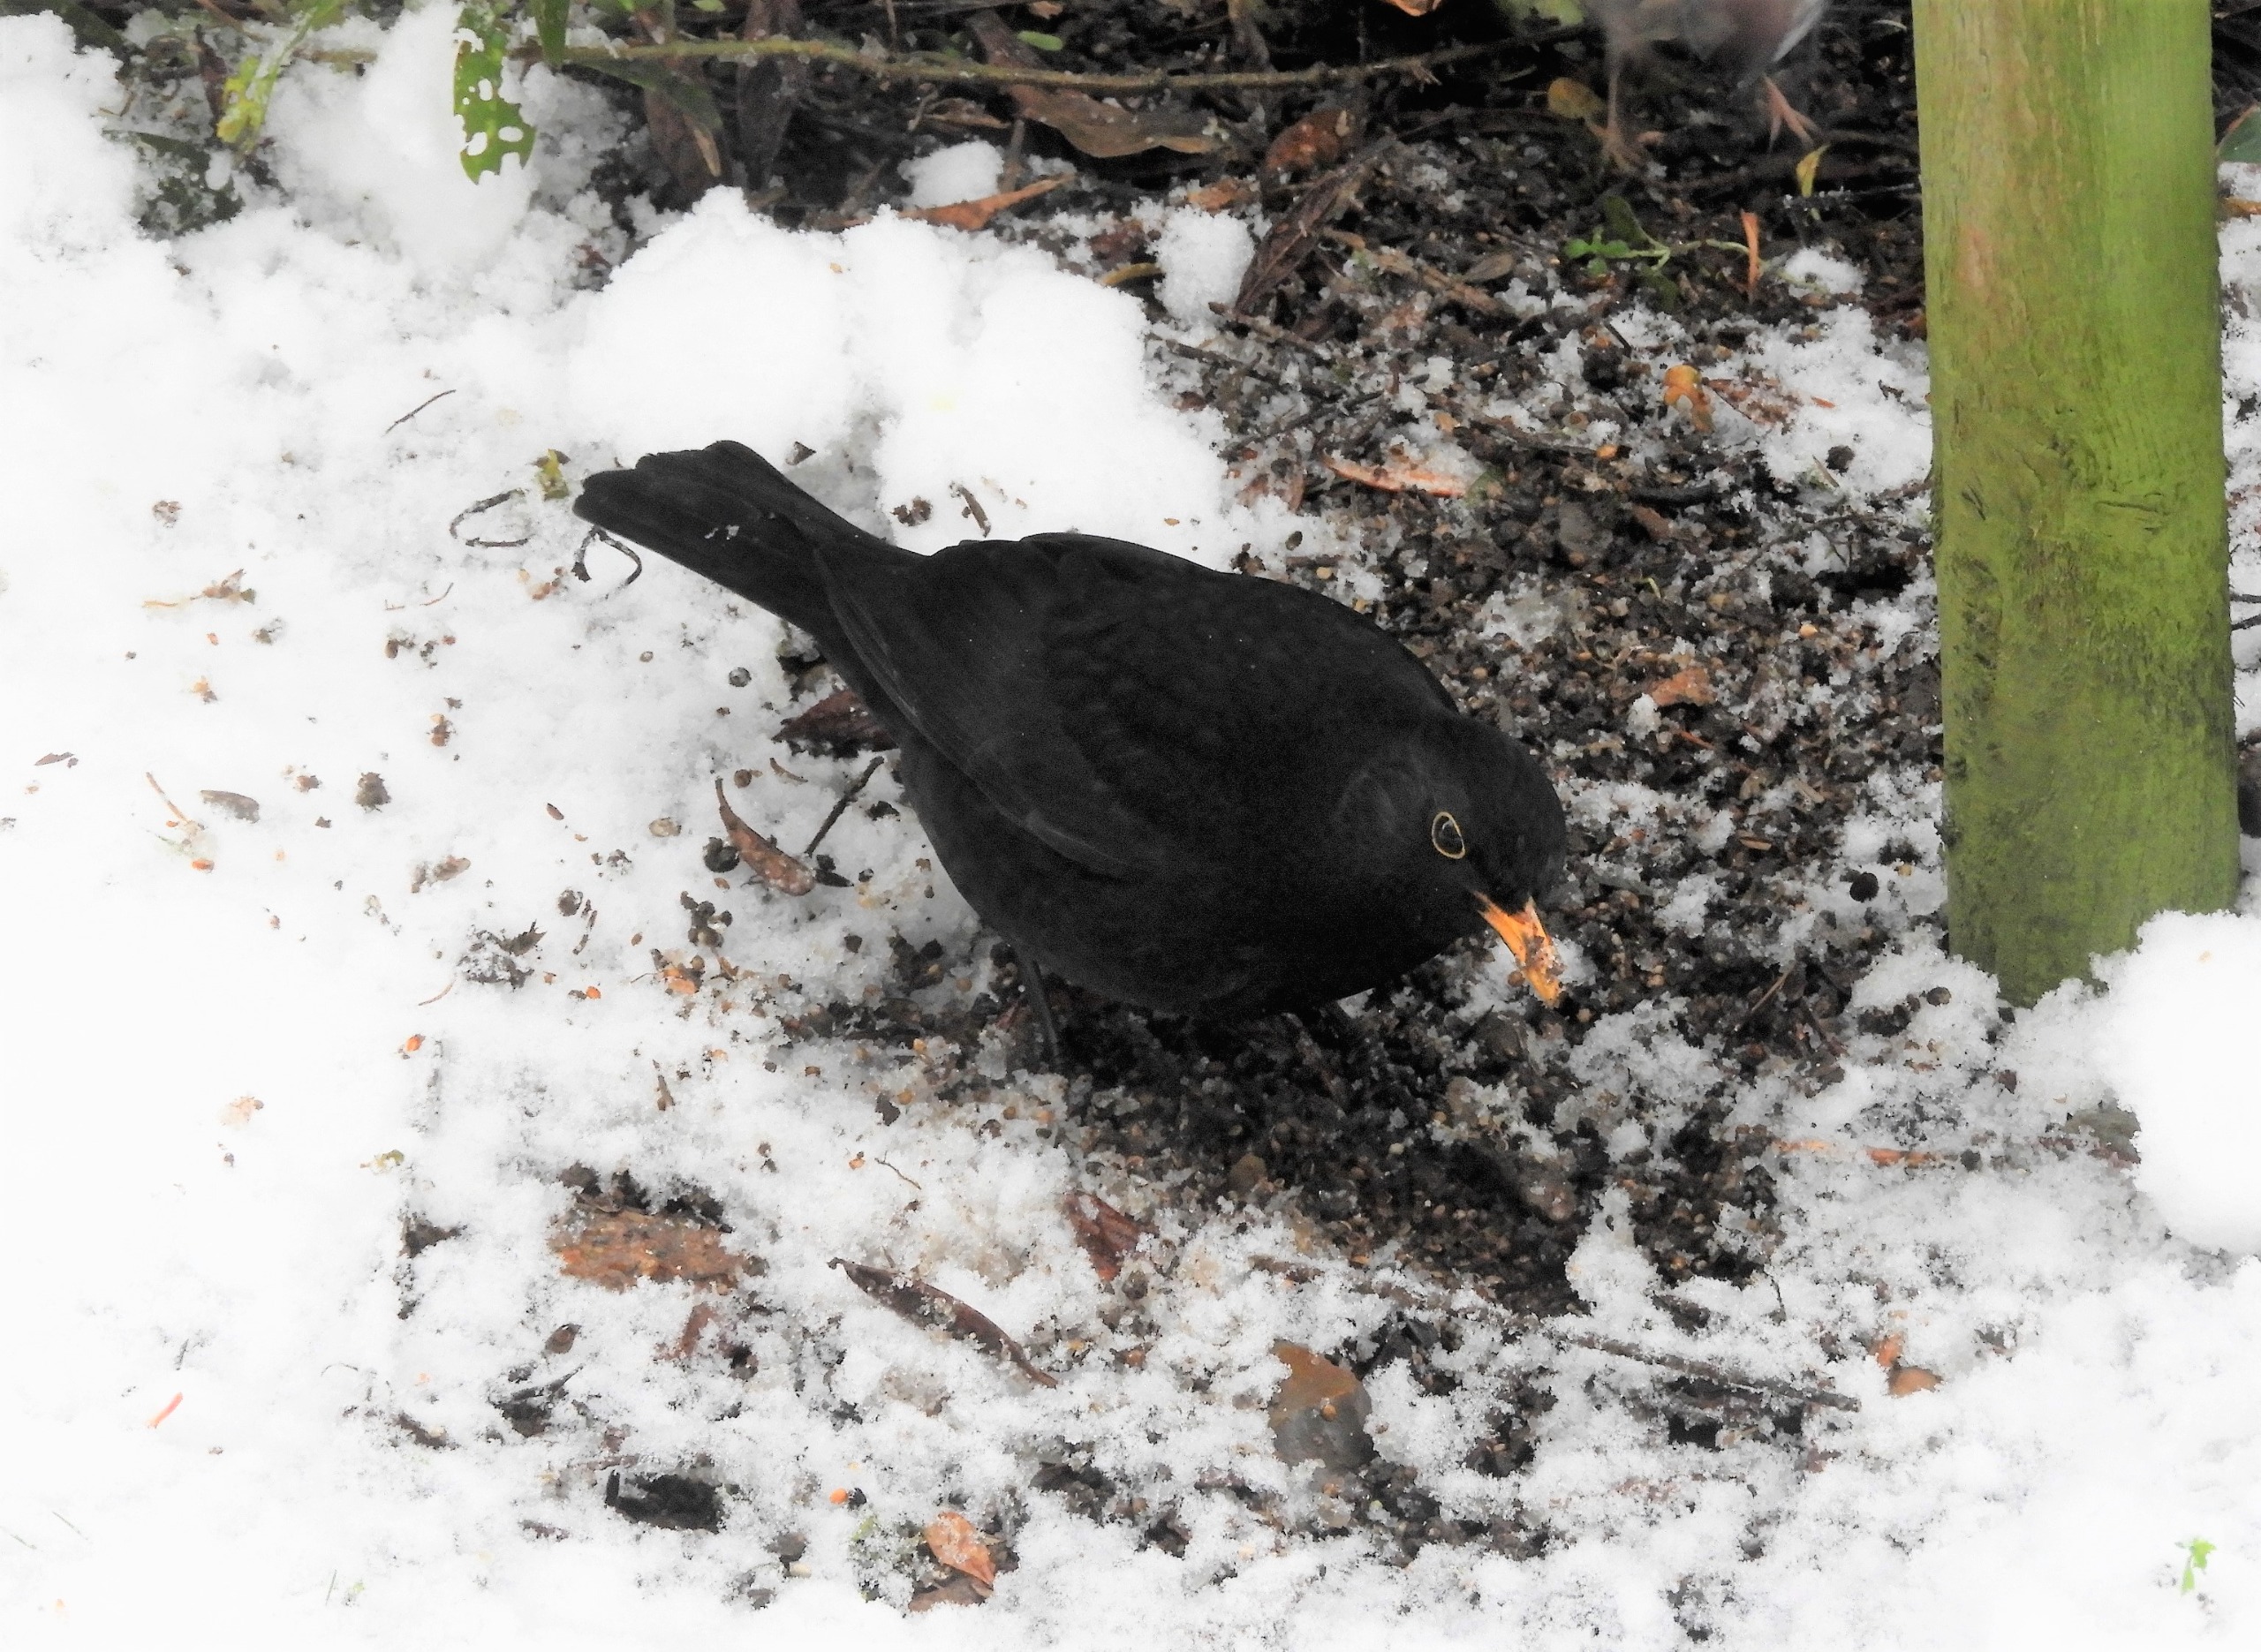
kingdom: Animalia
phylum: Chordata
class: Aves
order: Passeriformes
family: Turdidae
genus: Turdus
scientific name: Turdus merula
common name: Solsort
